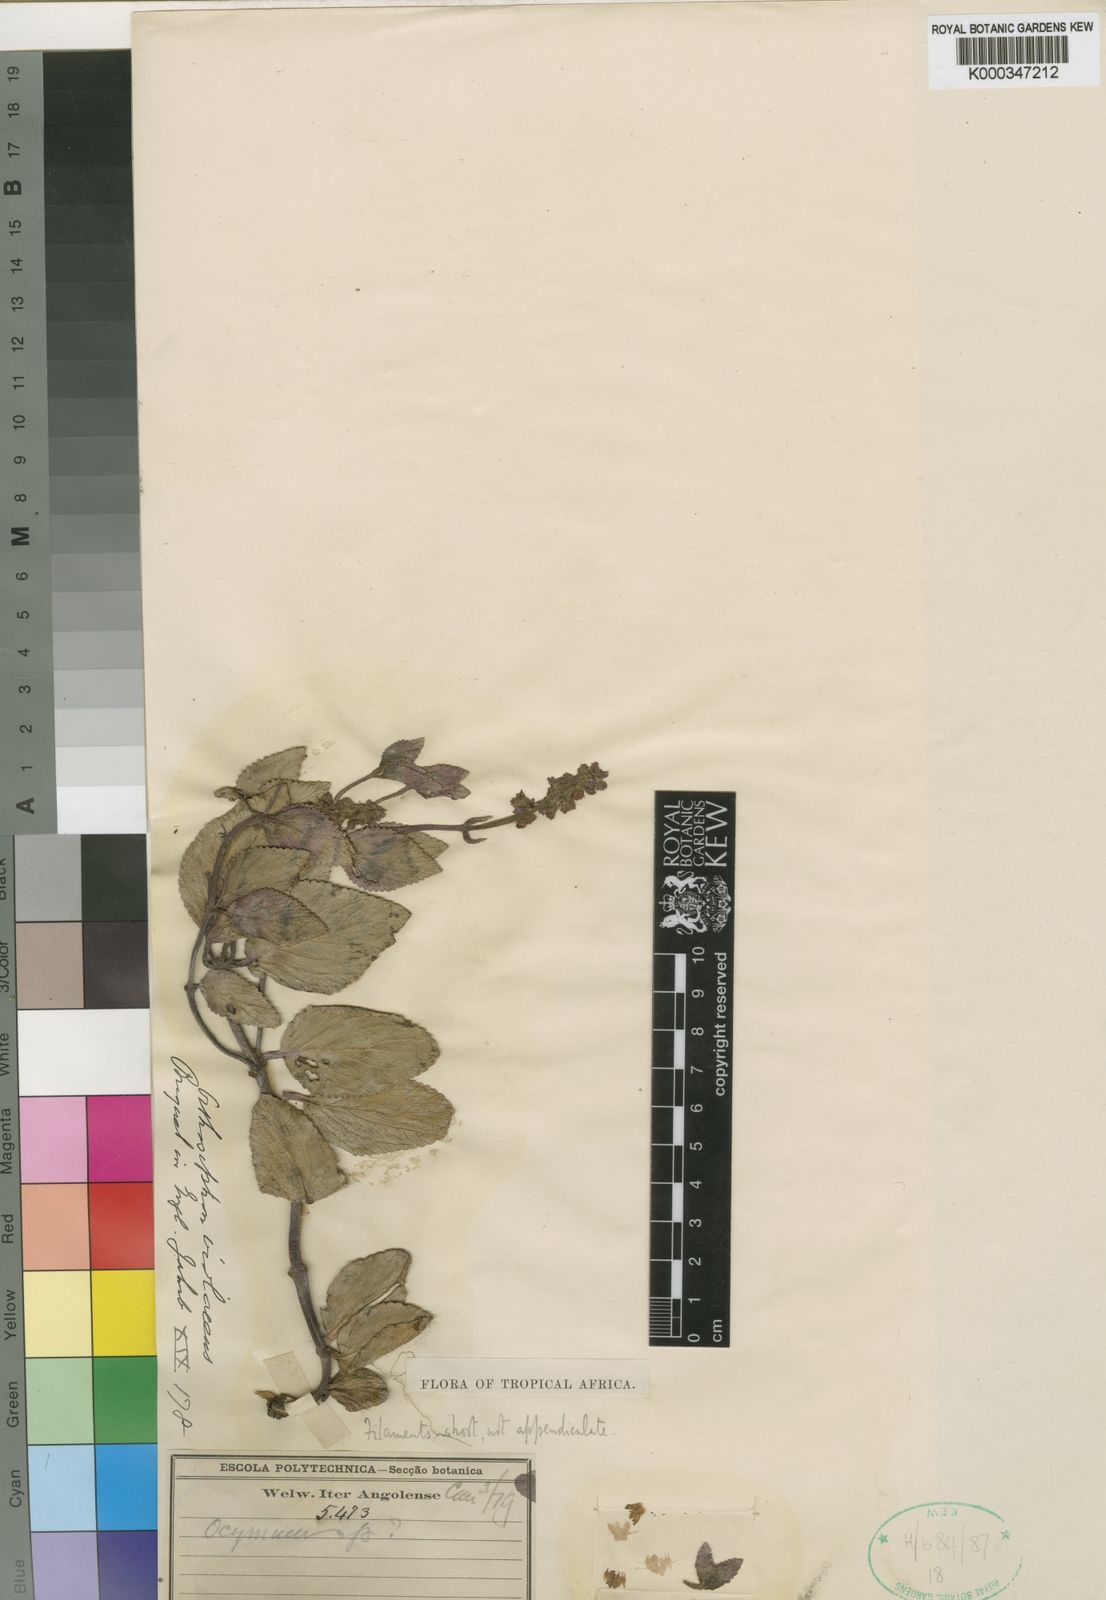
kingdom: Plantae
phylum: Tracheophyta
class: Magnoliopsida
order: Lamiales
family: Lamiaceae
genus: Orthosiphon
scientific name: Orthosiphon violaceus
